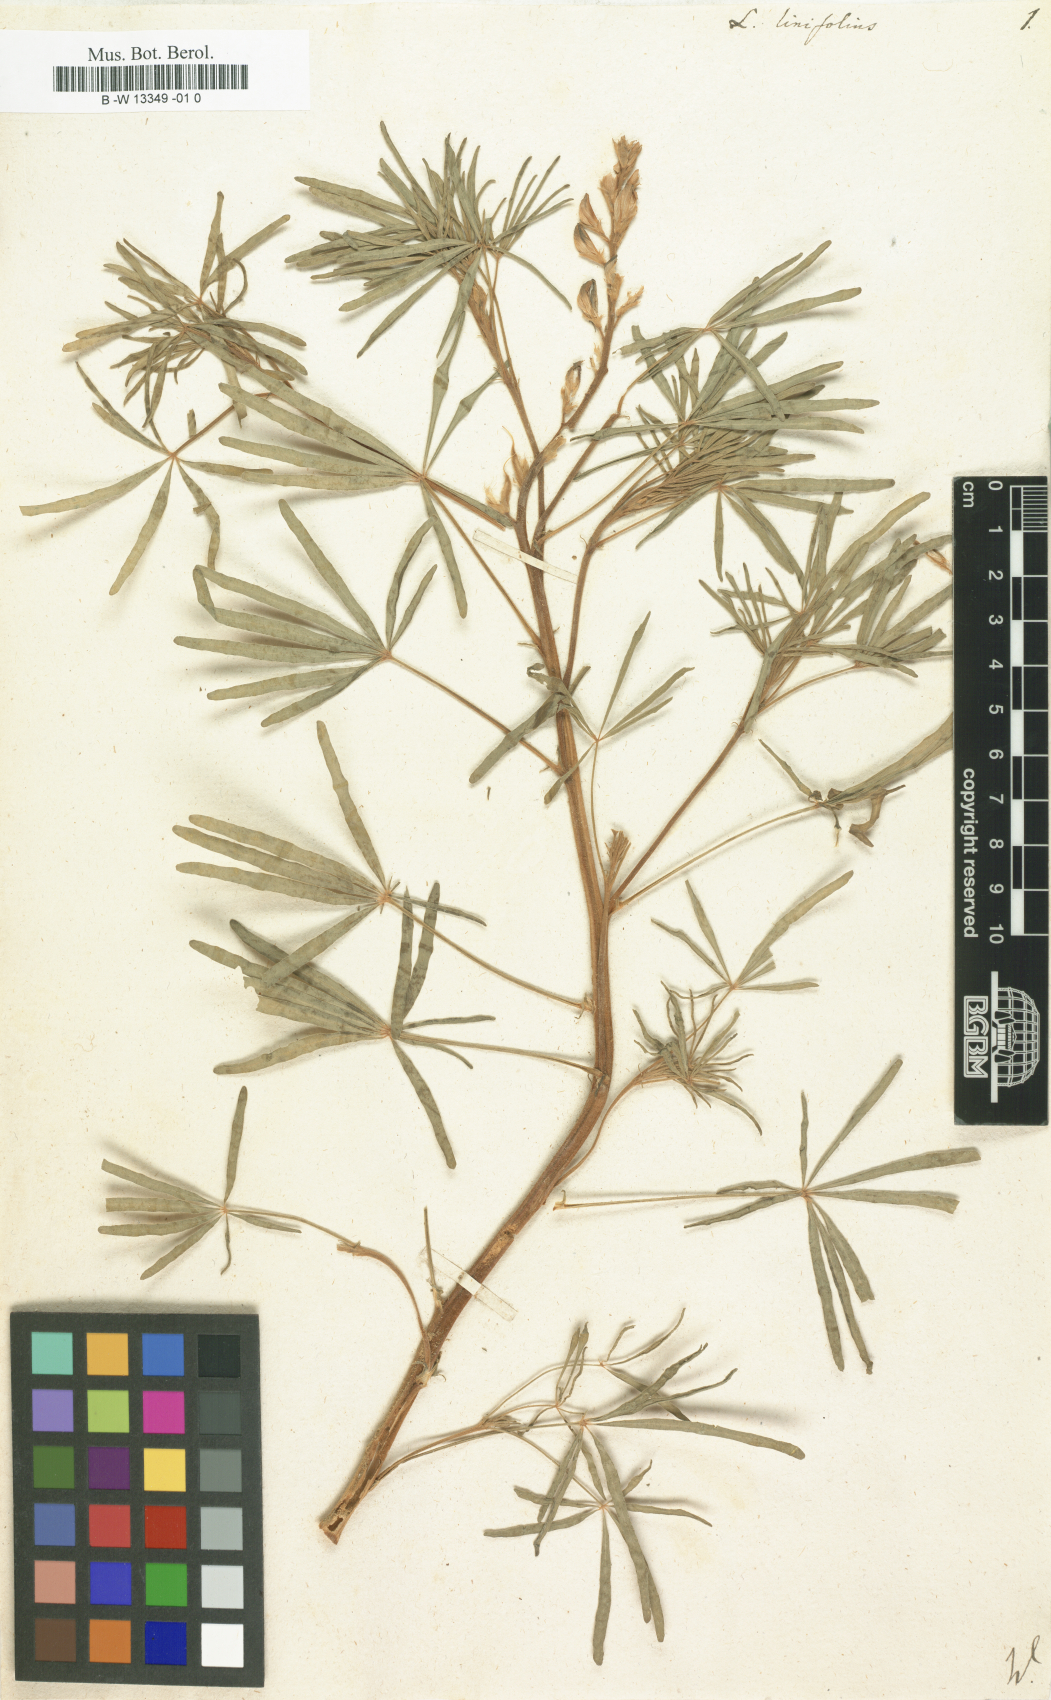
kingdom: Plantae
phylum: Tracheophyta
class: Magnoliopsida
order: Fabales
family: Fabaceae
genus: Lupinus
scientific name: Lupinus angustifolius
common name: Narrow-leaved lupin
